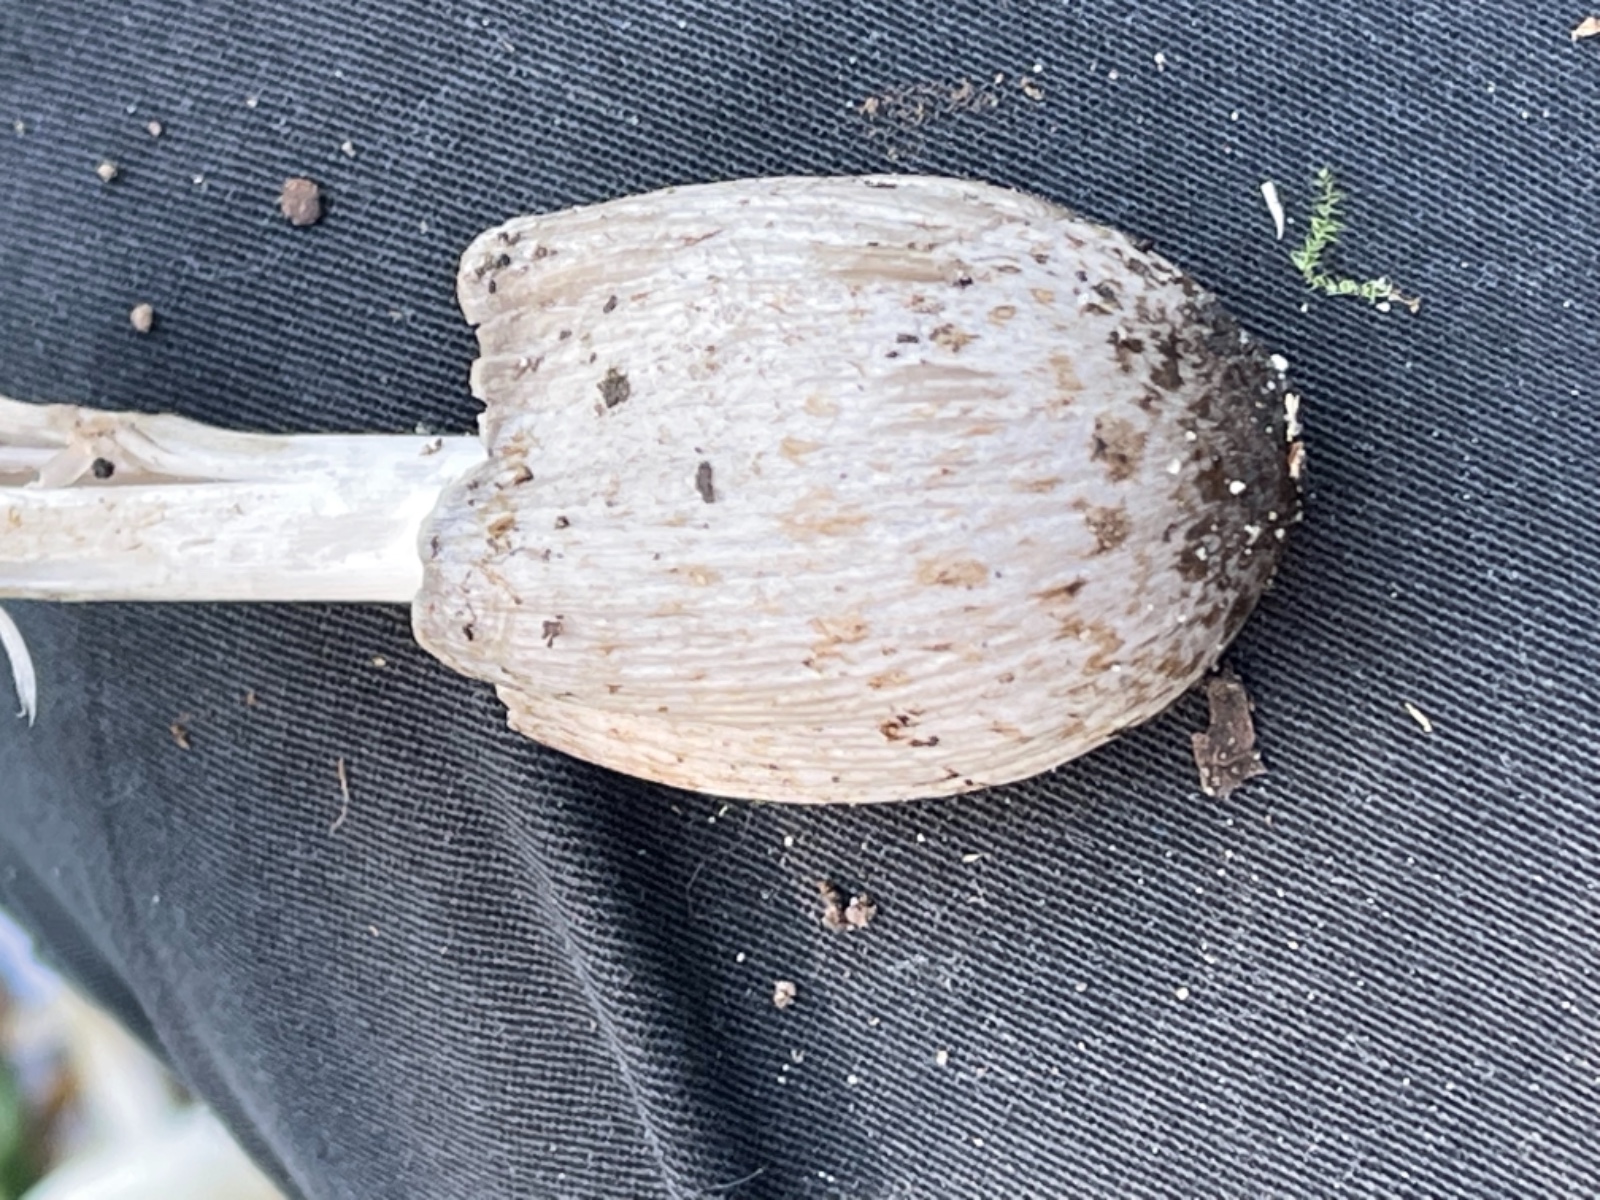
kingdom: Fungi
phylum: Basidiomycota
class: Agaricomycetes
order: Agaricales
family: Psathyrellaceae
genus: Coprinopsis
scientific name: Coprinopsis romagnesiana
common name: brunskællet blækhat
